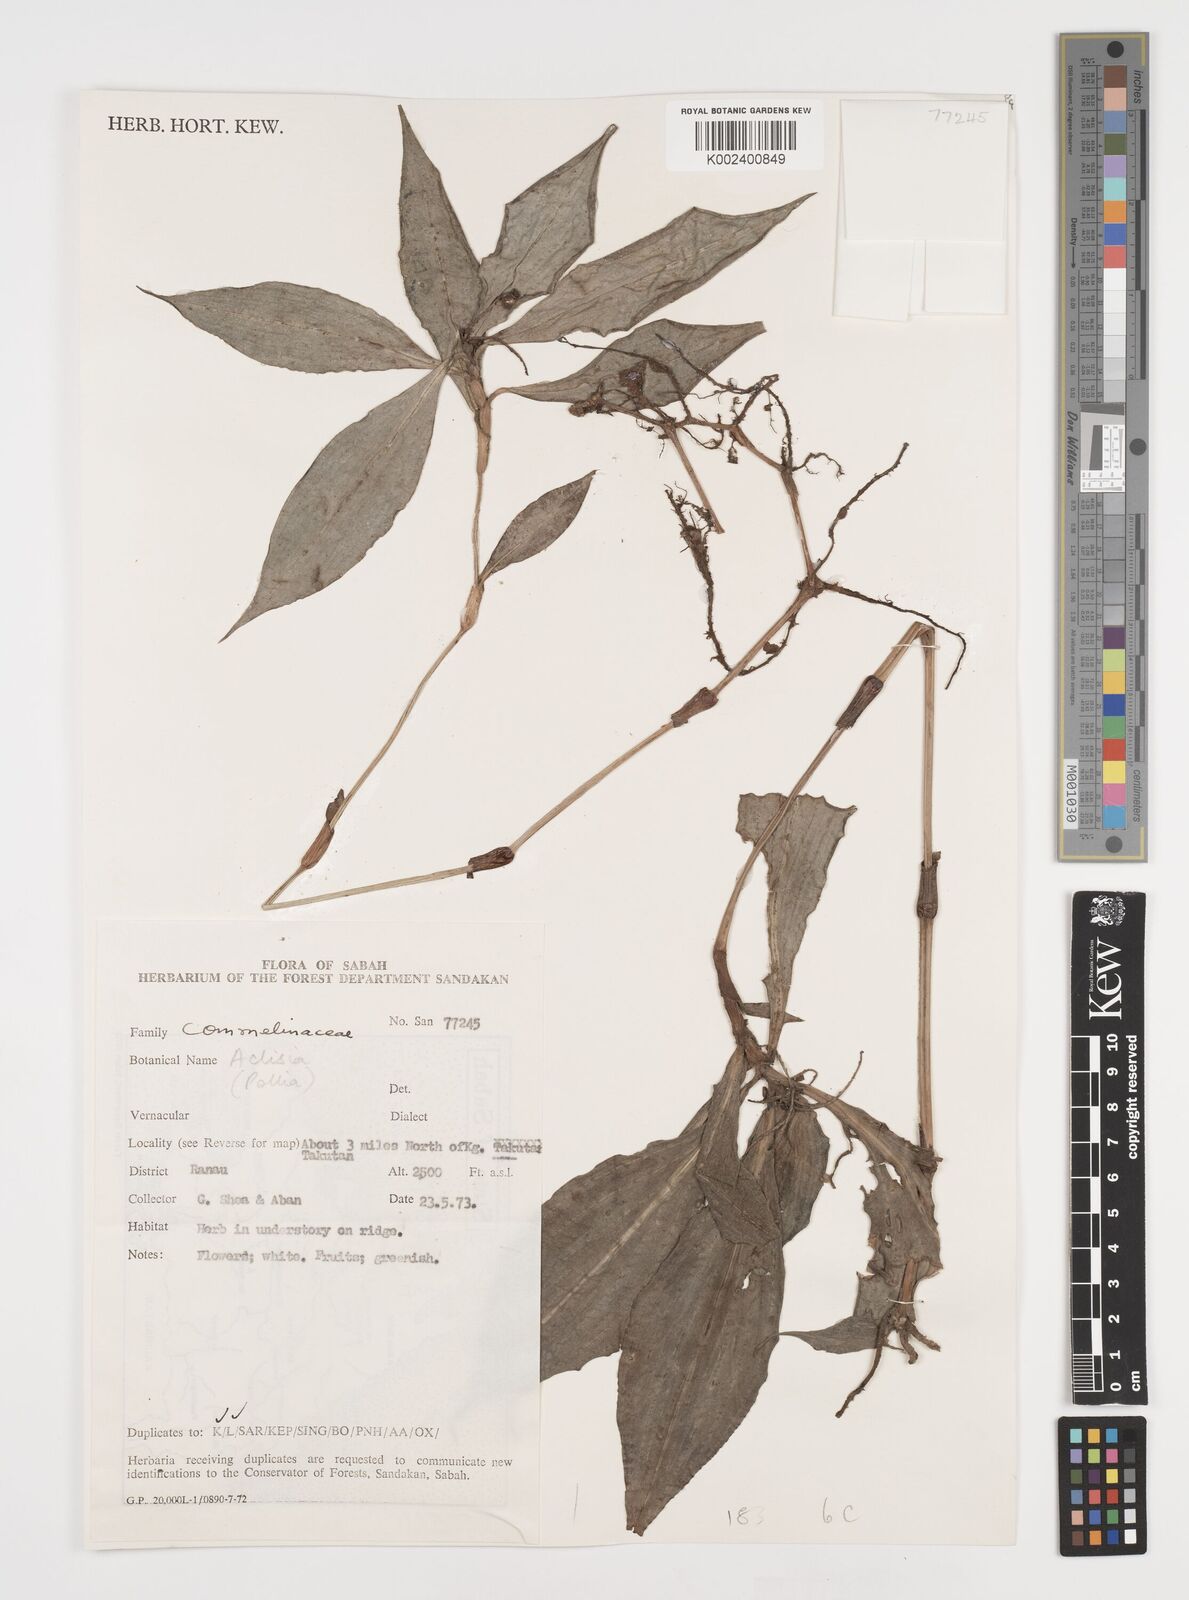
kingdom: Plantae
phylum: Tracheophyta
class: Liliopsida
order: Commelinales
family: Commelinaceae
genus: Tricarpelema
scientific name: Tricarpelema philippense
